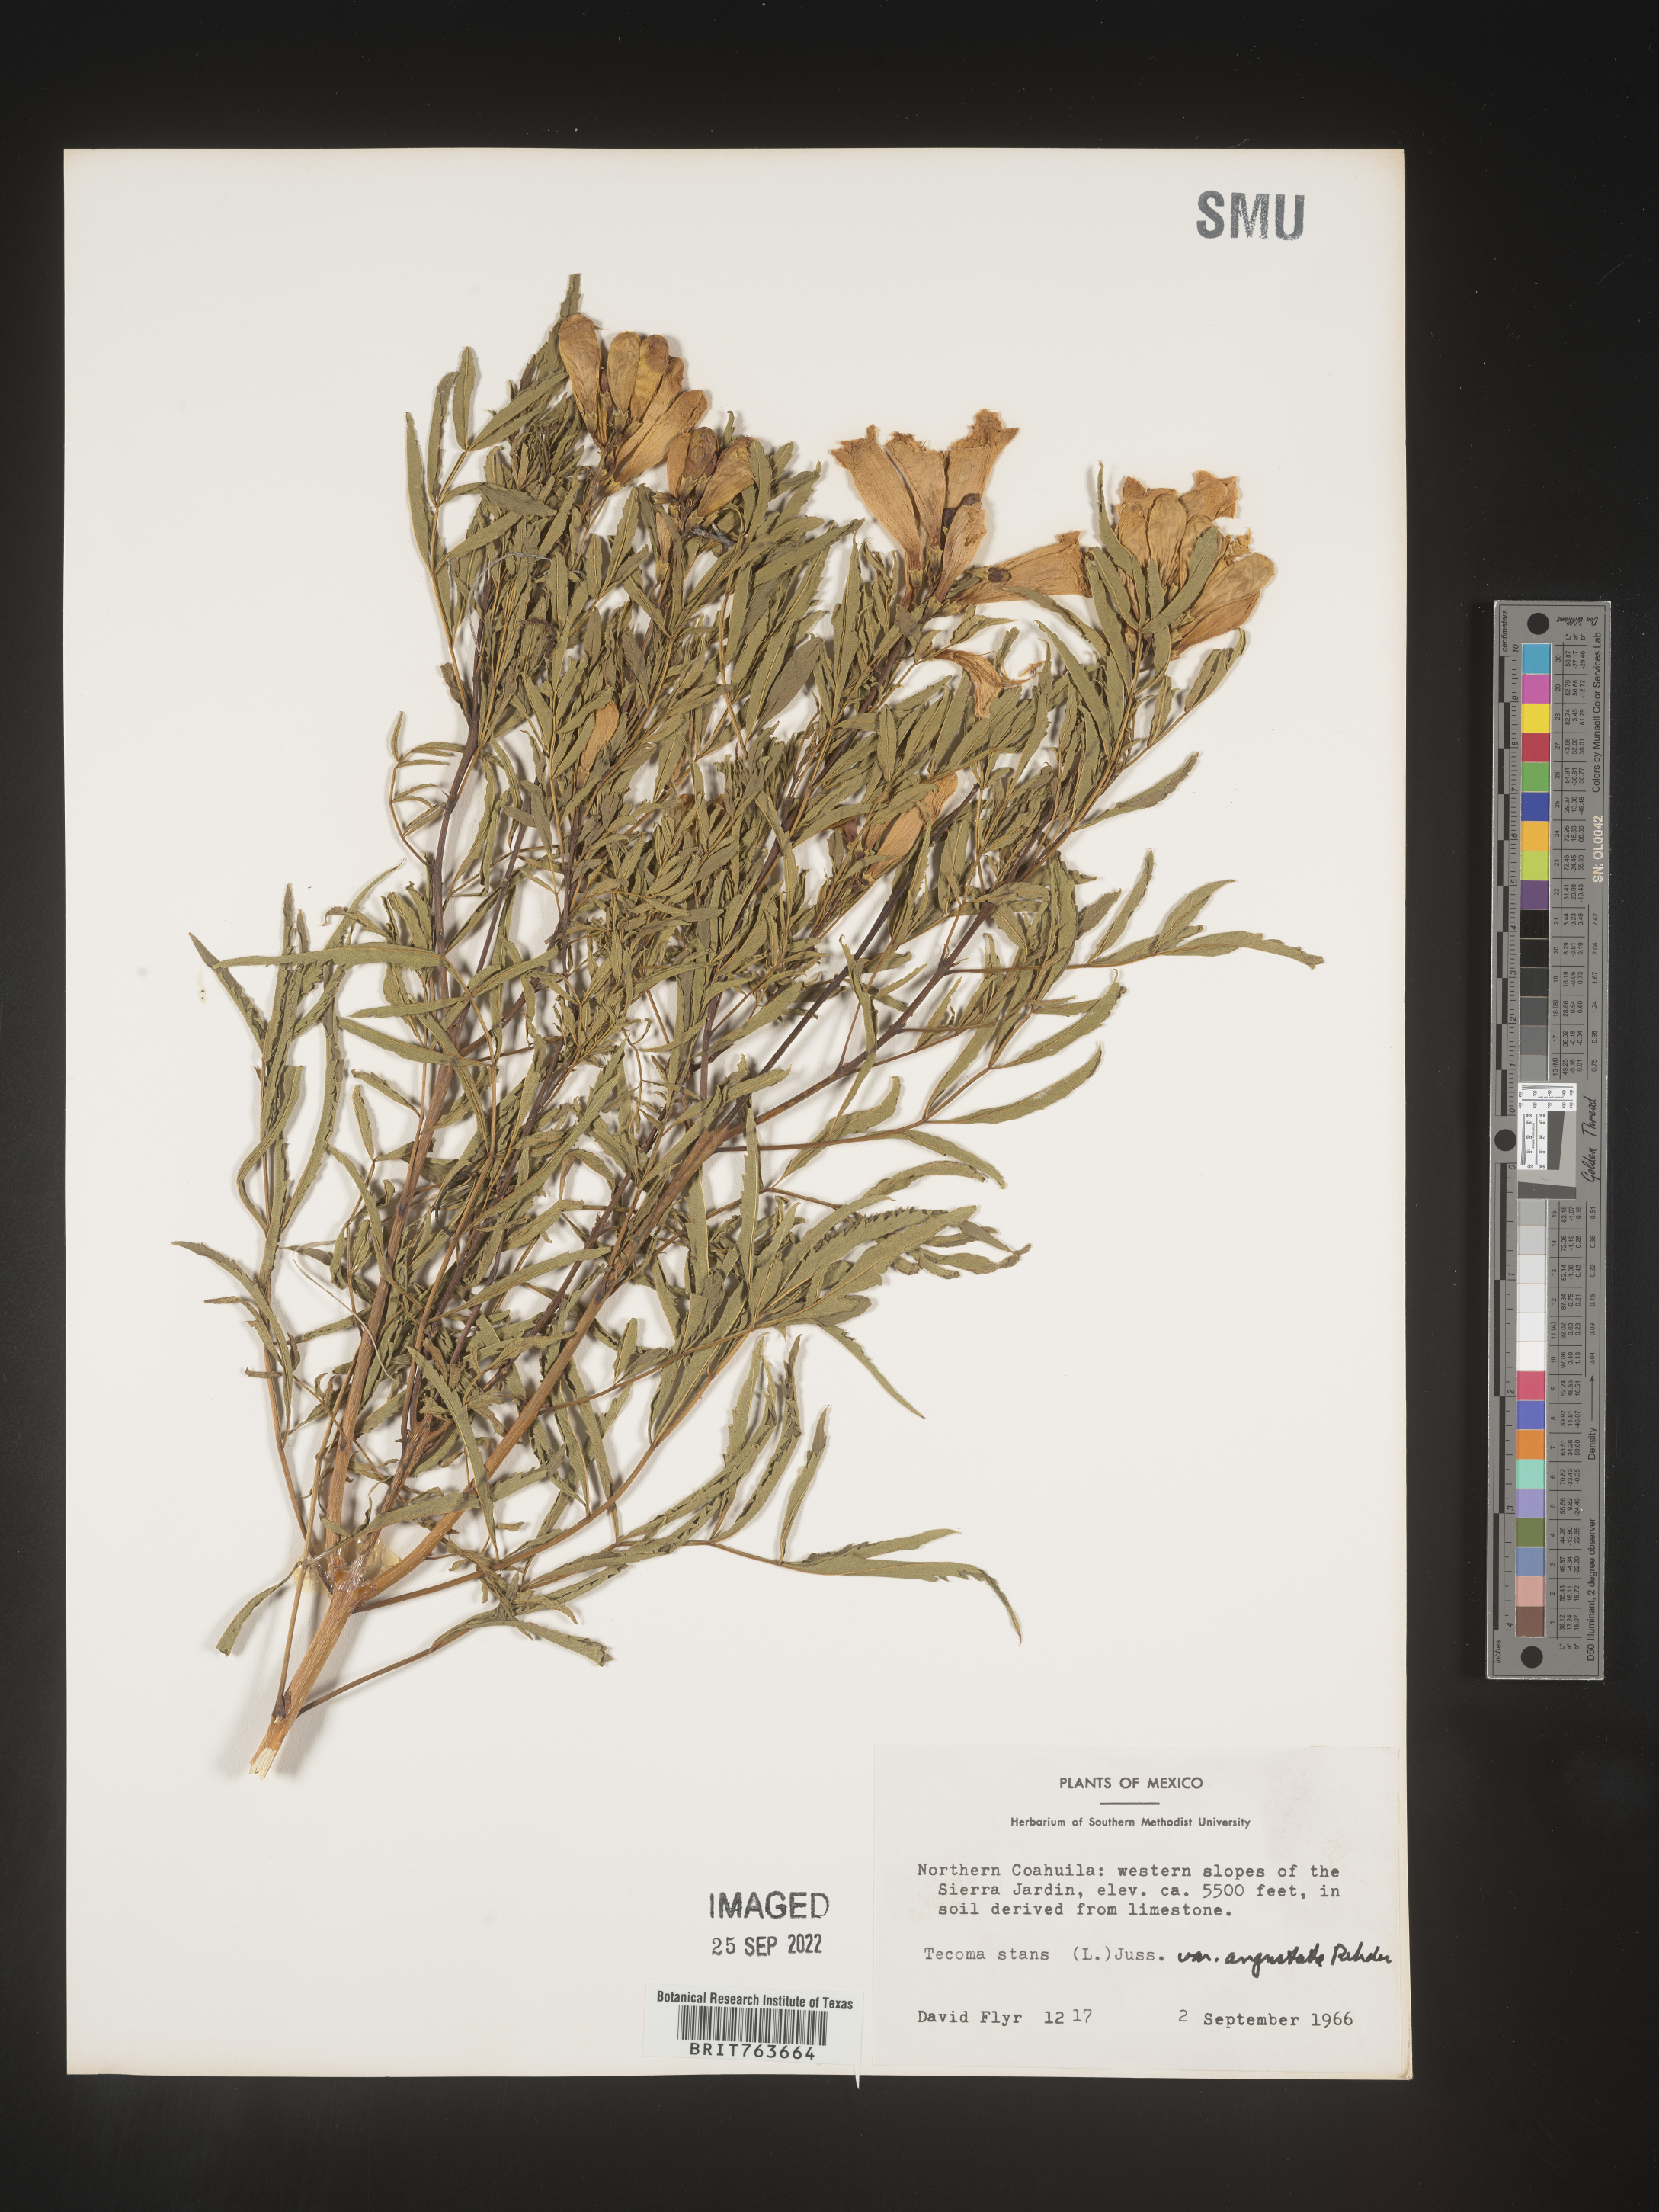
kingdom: Plantae
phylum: Tracheophyta
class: Magnoliopsida
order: Lamiales
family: Bignoniaceae
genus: Tecoma
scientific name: Tecoma
